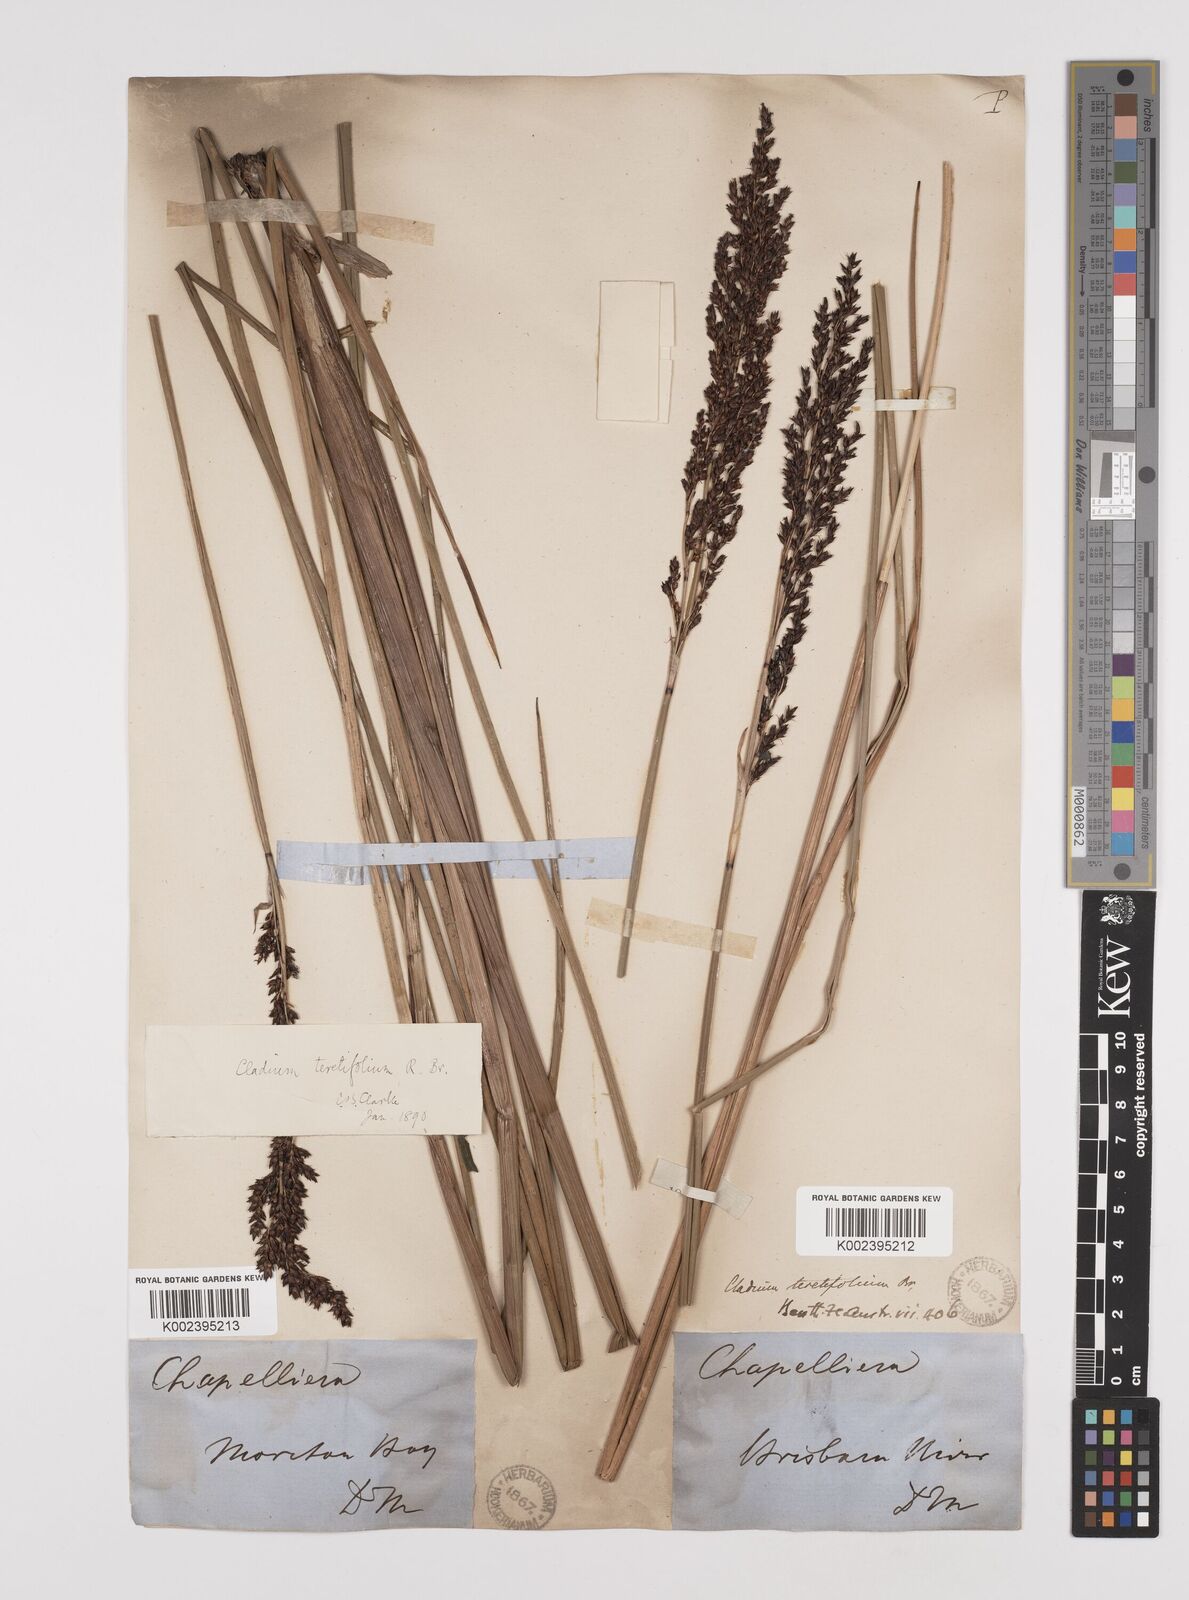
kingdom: Plantae
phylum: Tracheophyta
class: Liliopsida
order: Poales
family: Cyperaceae
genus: Machaerina
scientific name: Machaerina teretifolia
